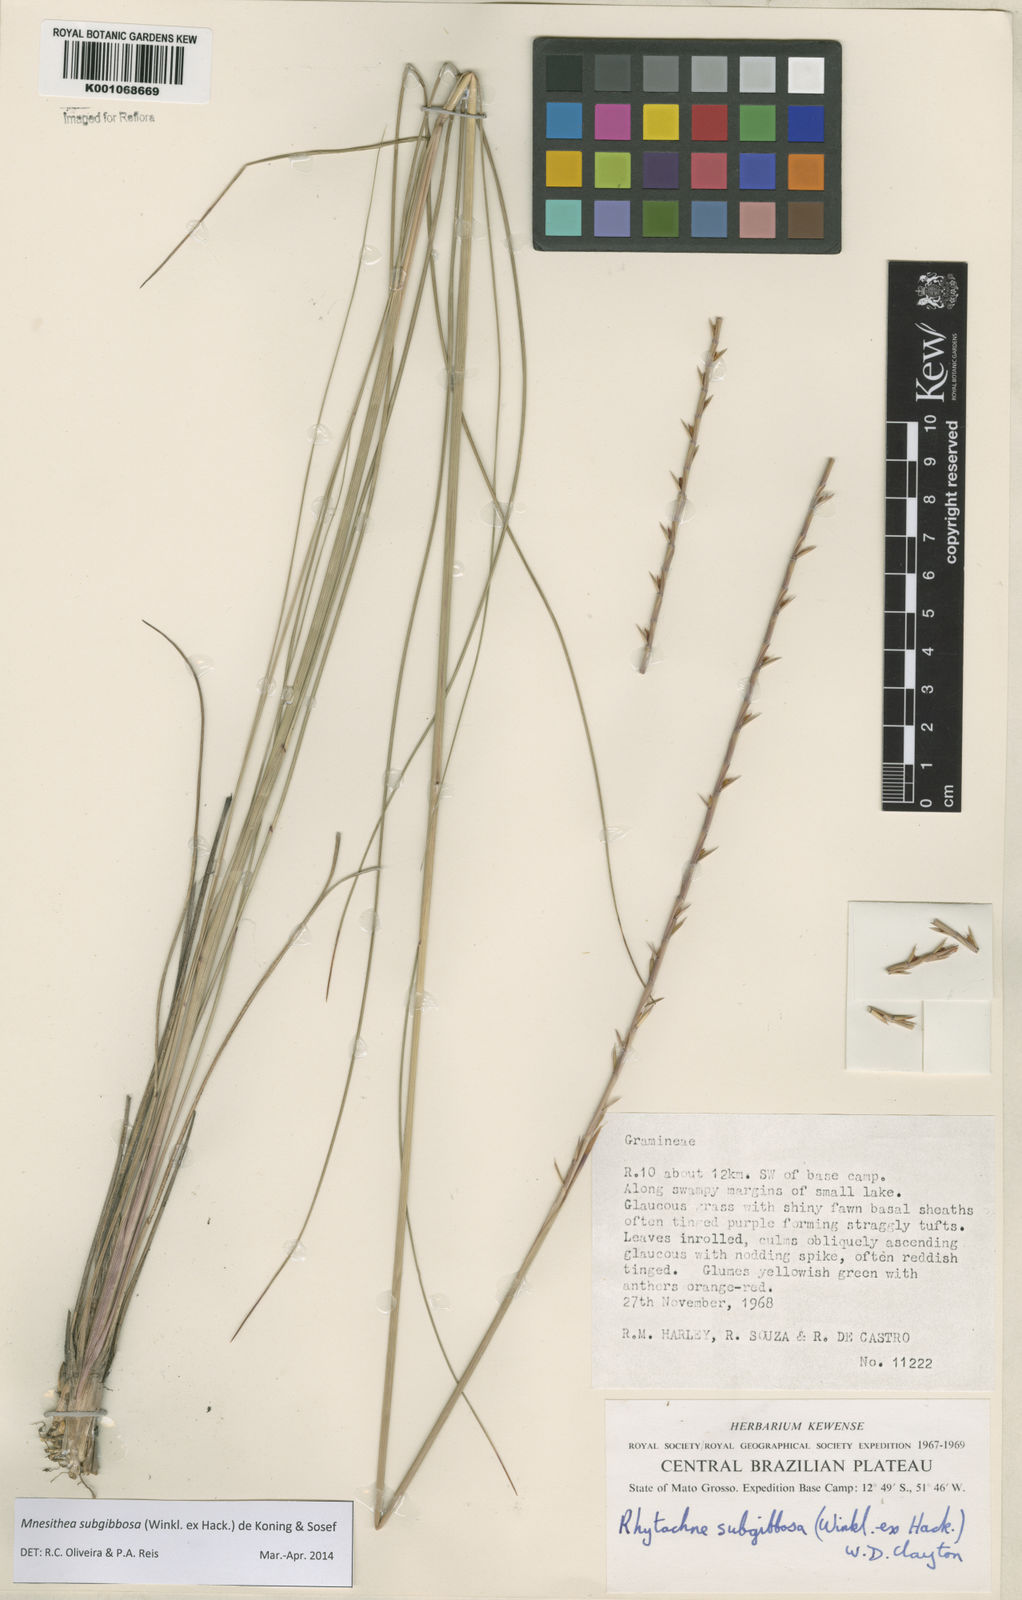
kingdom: Plantae
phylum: Tracheophyta
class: Liliopsida
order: Poales
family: Poaceae
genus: Rhytachne
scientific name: Rhytachne subgibbosa
